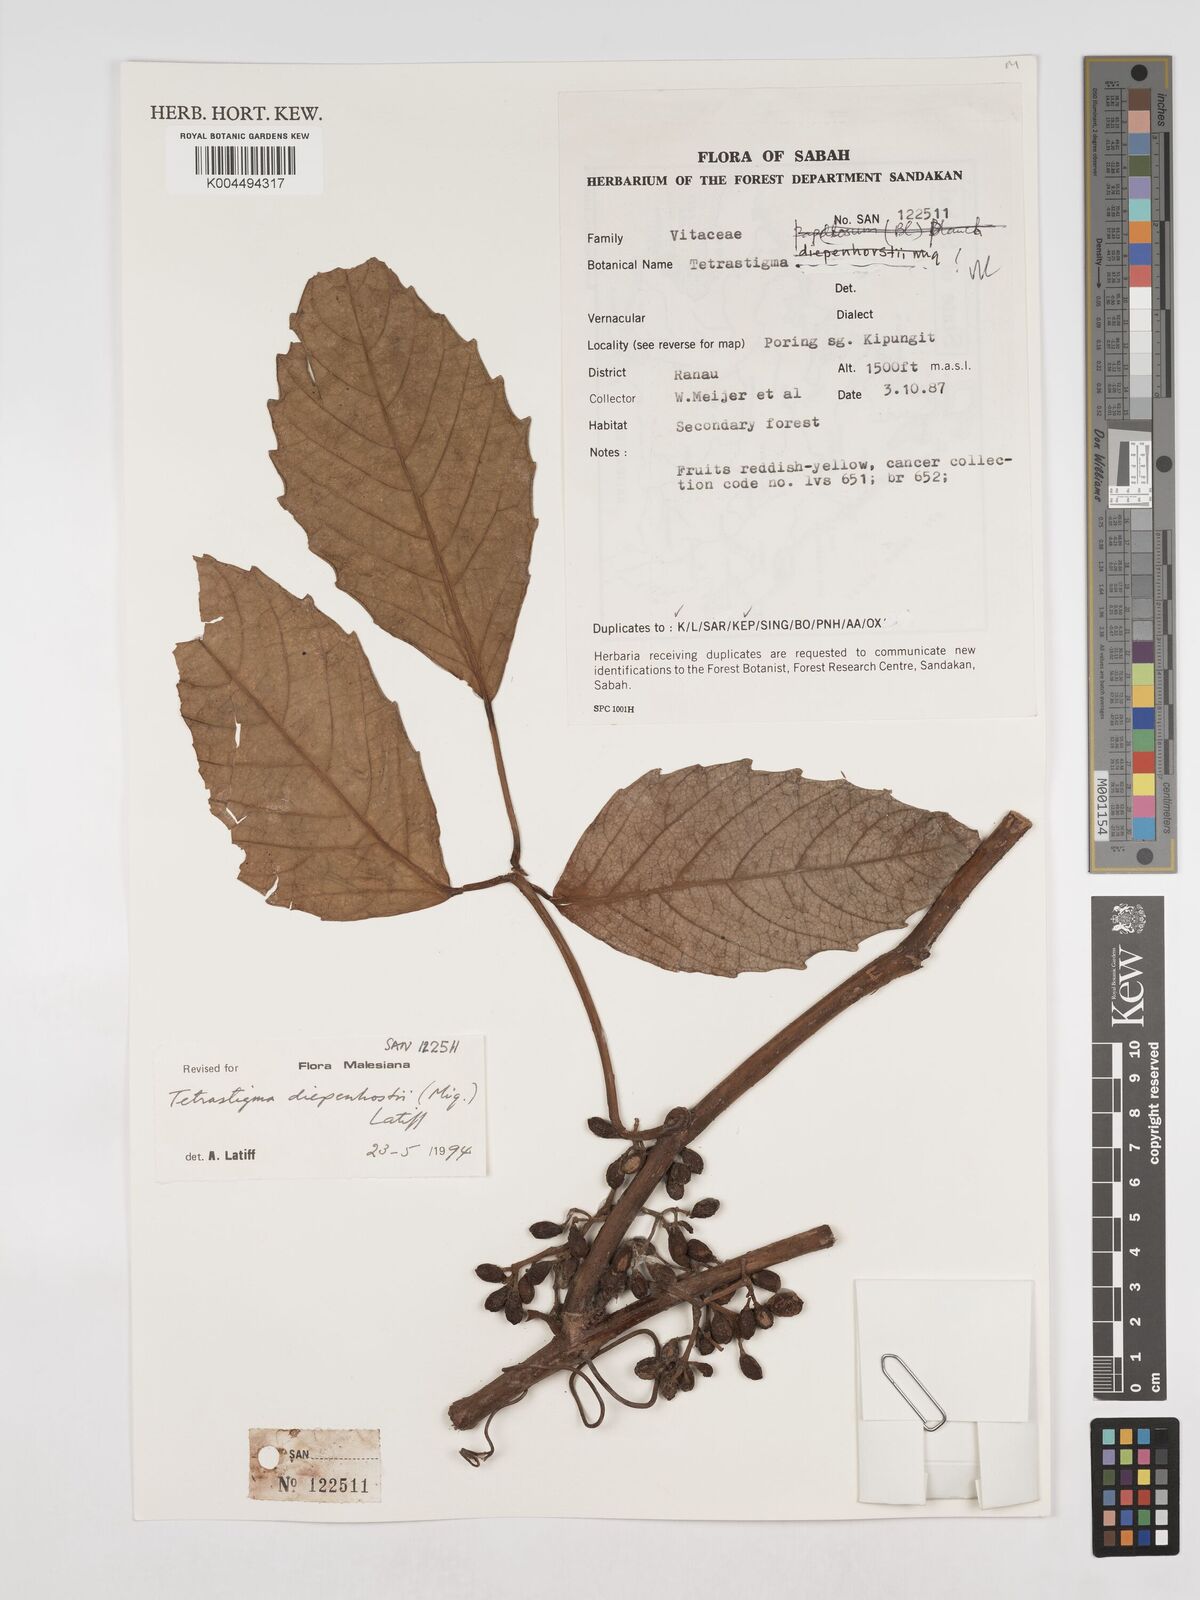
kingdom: Plantae
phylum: Tracheophyta
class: Magnoliopsida
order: Vitales
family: Vitaceae
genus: Tetrastigma
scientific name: Tetrastigma diepenhorstii
